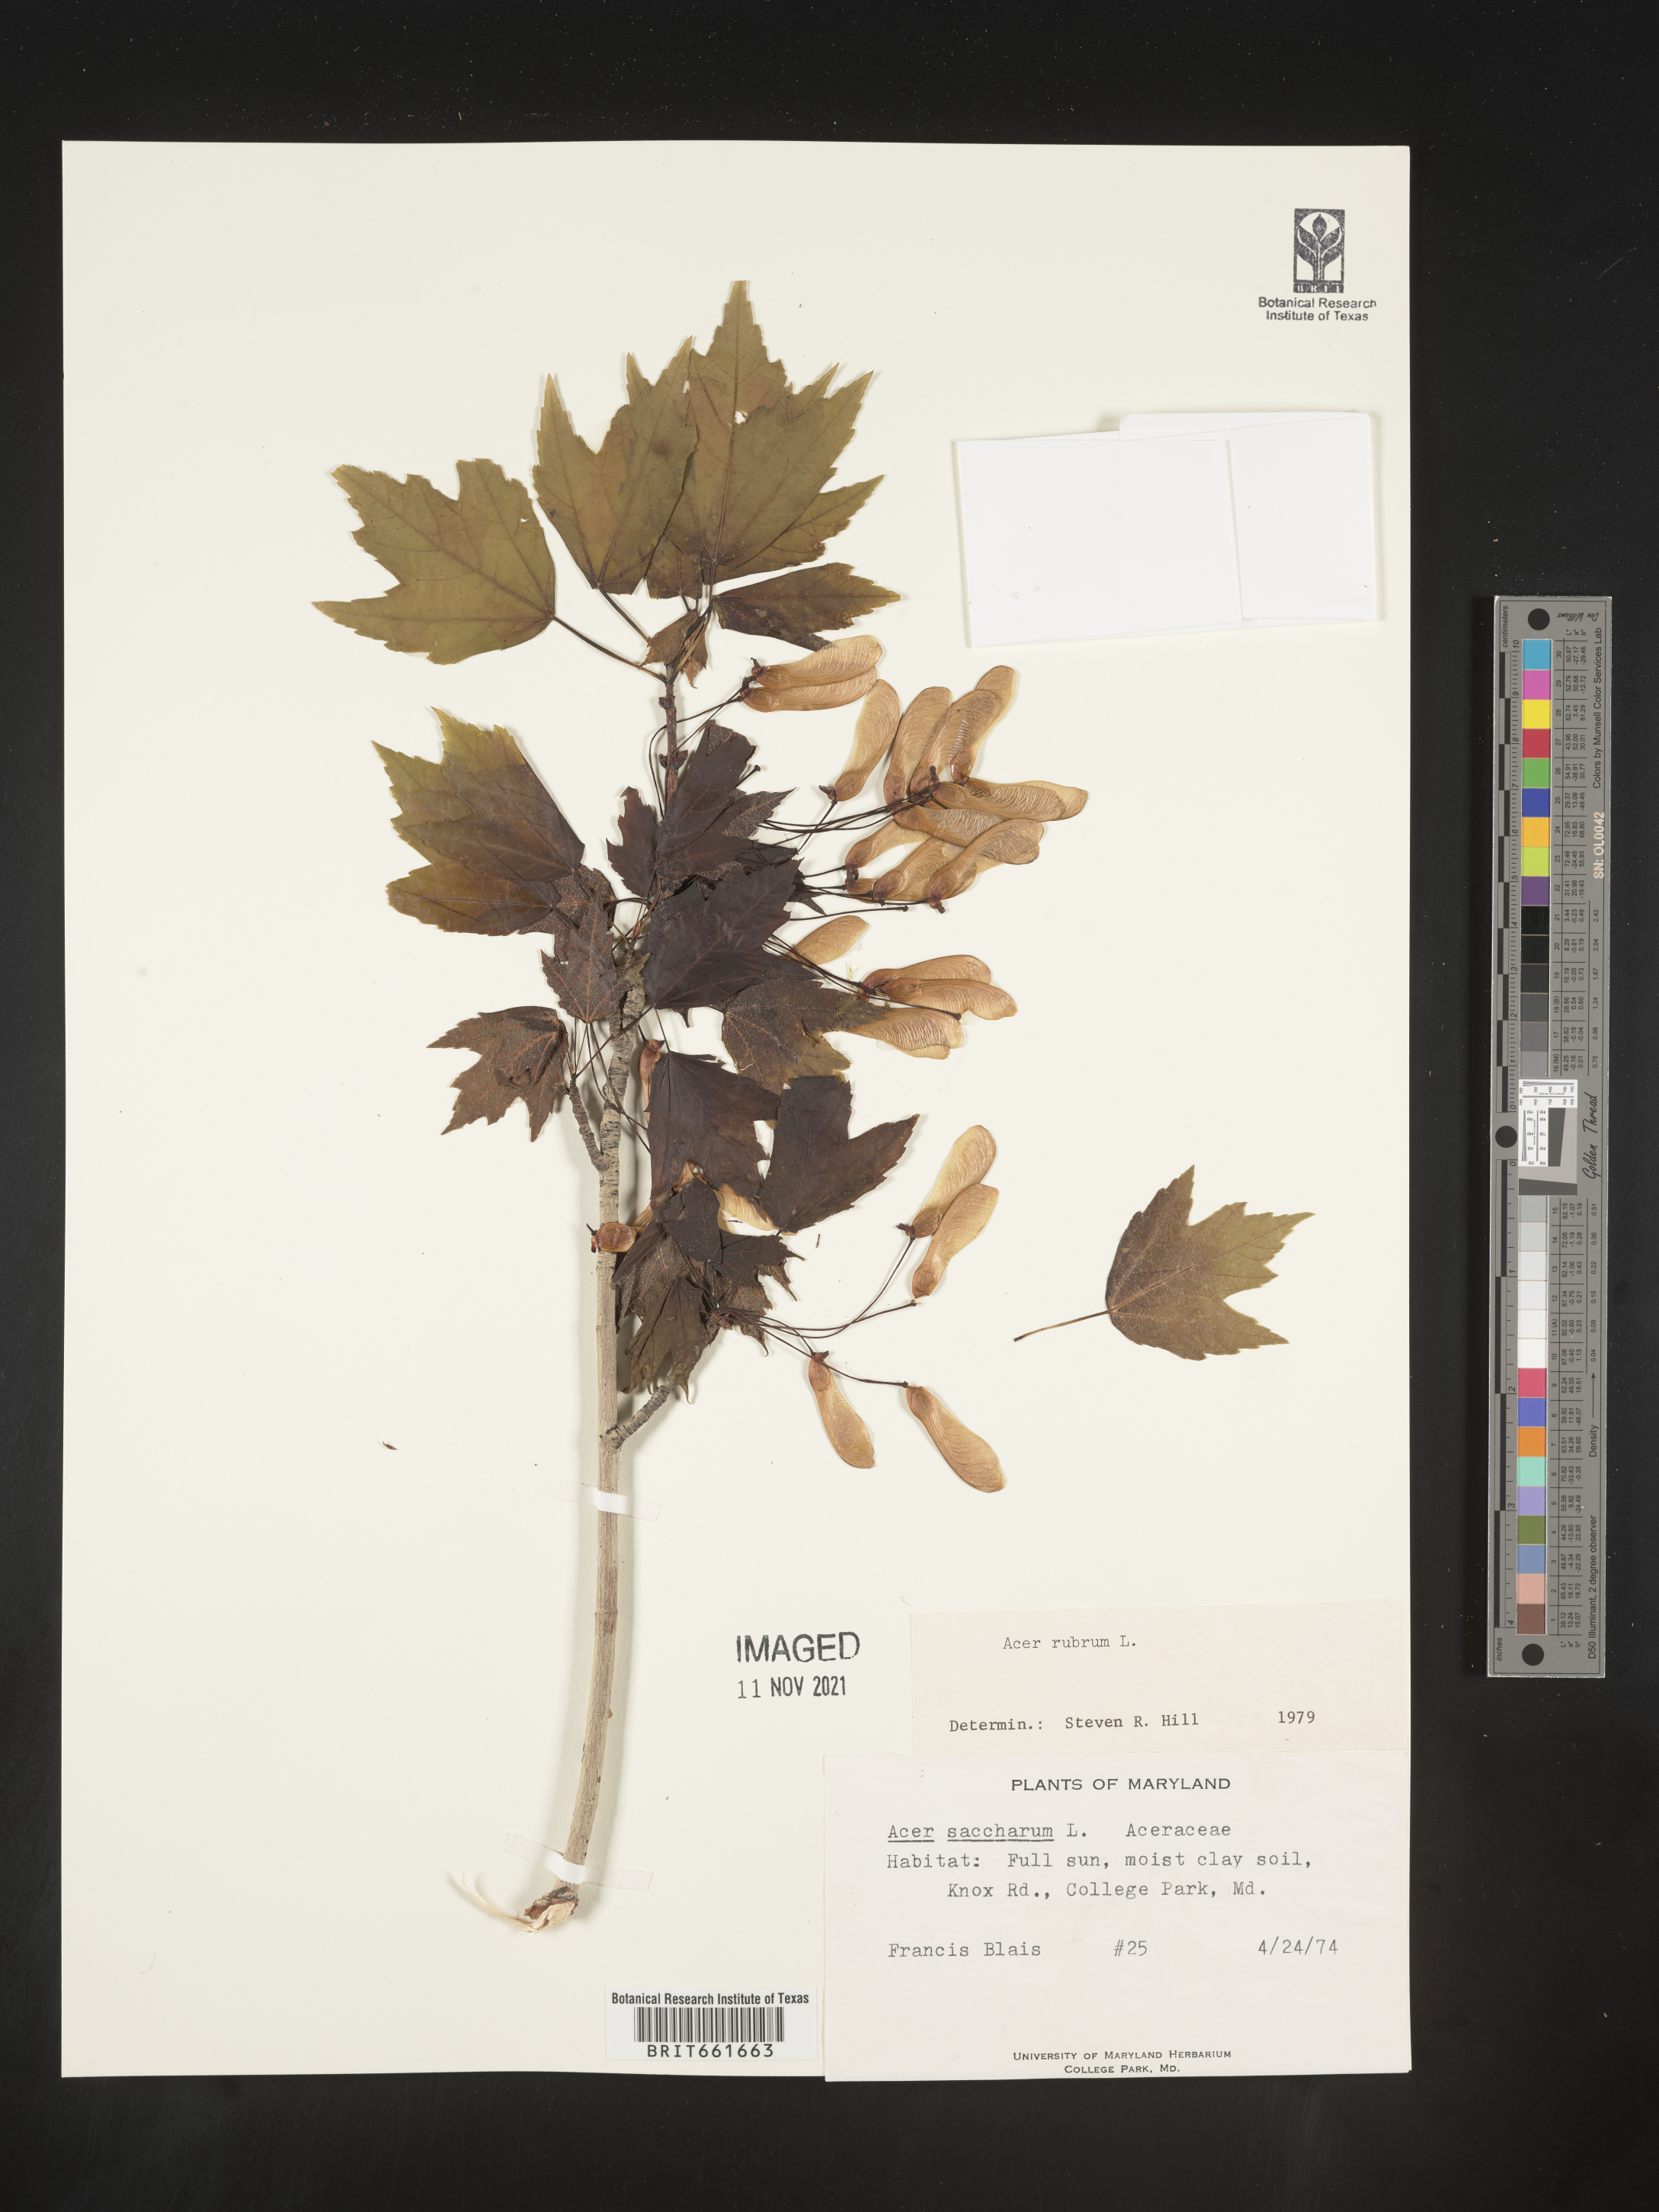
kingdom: Plantae
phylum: Tracheophyta
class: Magnoliopsida
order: Sapindales
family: Sapindaceae
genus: Acer
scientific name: Acer rubrum
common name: Red maple
